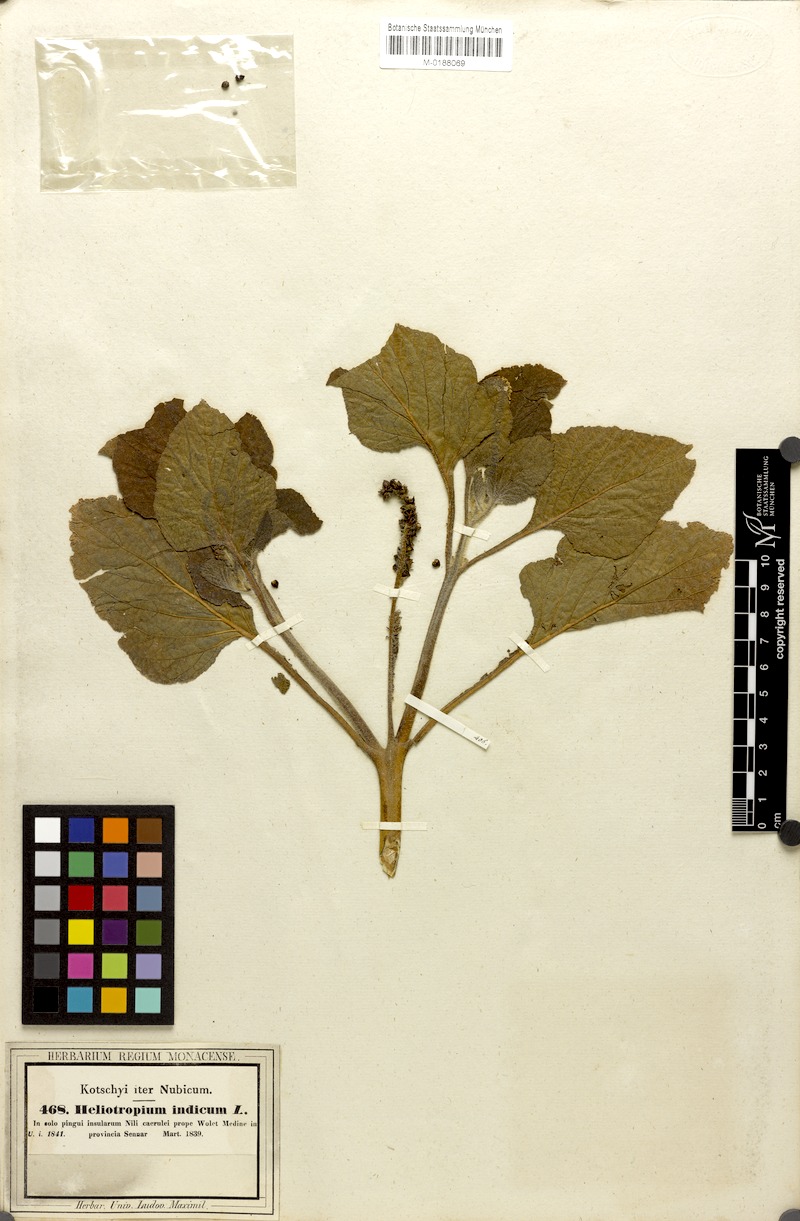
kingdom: Plantae
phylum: Tracheophyta
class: Magnoliopsida
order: Boraginales
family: Heliotropiaceae
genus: Heliotropium
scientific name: Heliotropium indicum
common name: Indian heliotrope
